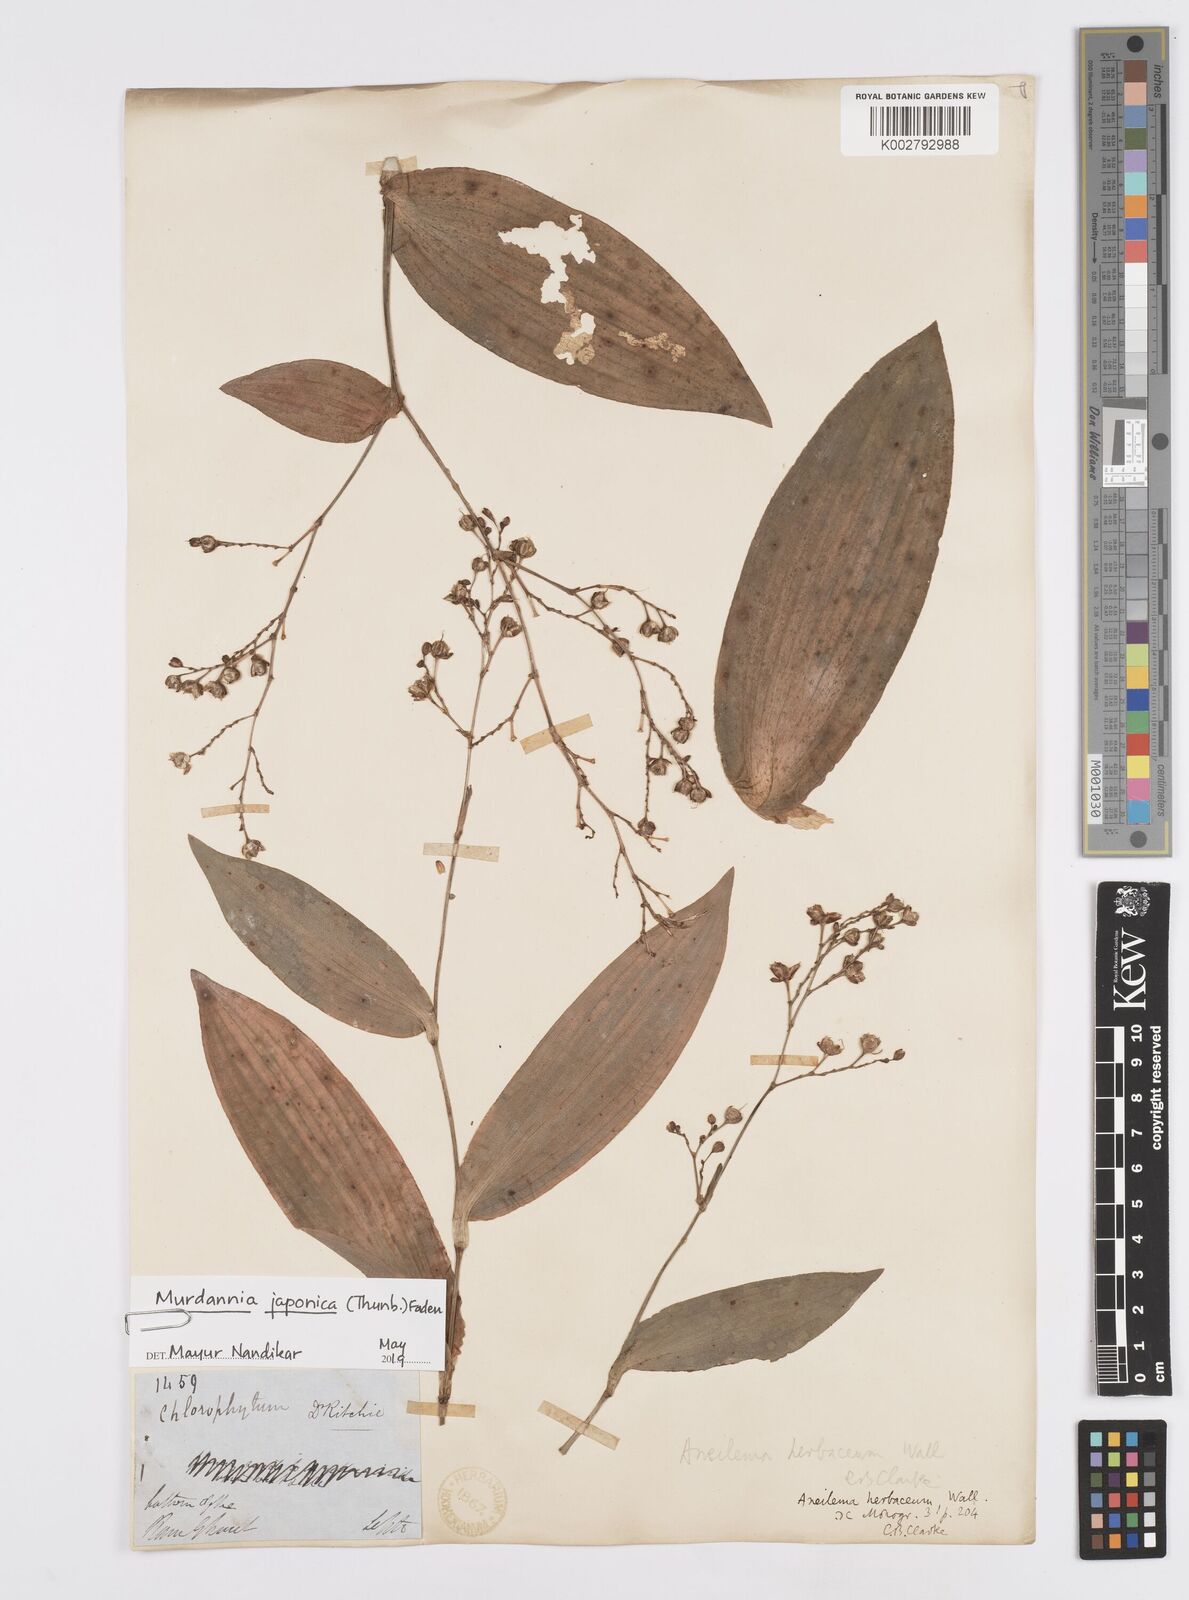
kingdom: Plantae
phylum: Tracheophyta
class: Liliopsida
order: Commelinales
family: Commelinaceae
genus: Murdannia
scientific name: Murdannia
